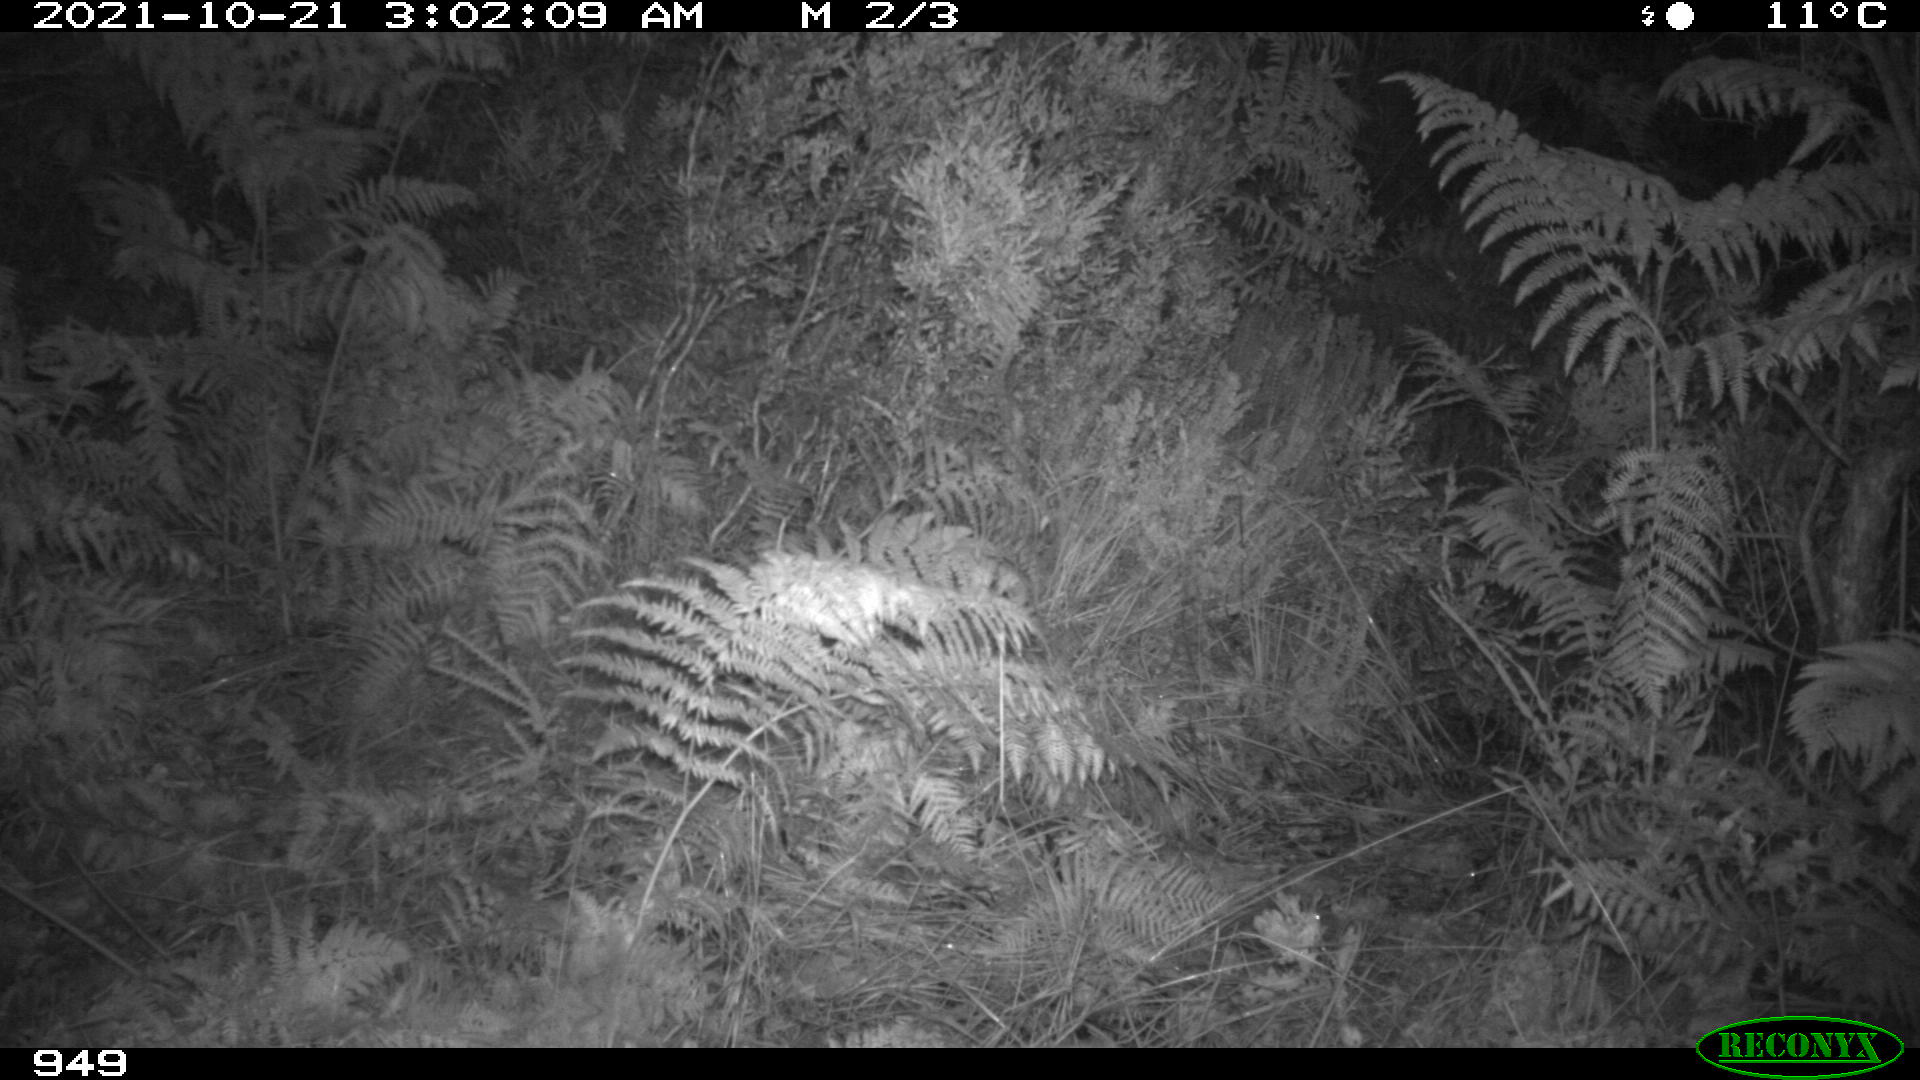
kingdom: Animalia
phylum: Chordata
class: Mammalia
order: Perissodactyla
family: Equidae
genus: Equus
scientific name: Equus caballus
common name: Horse
